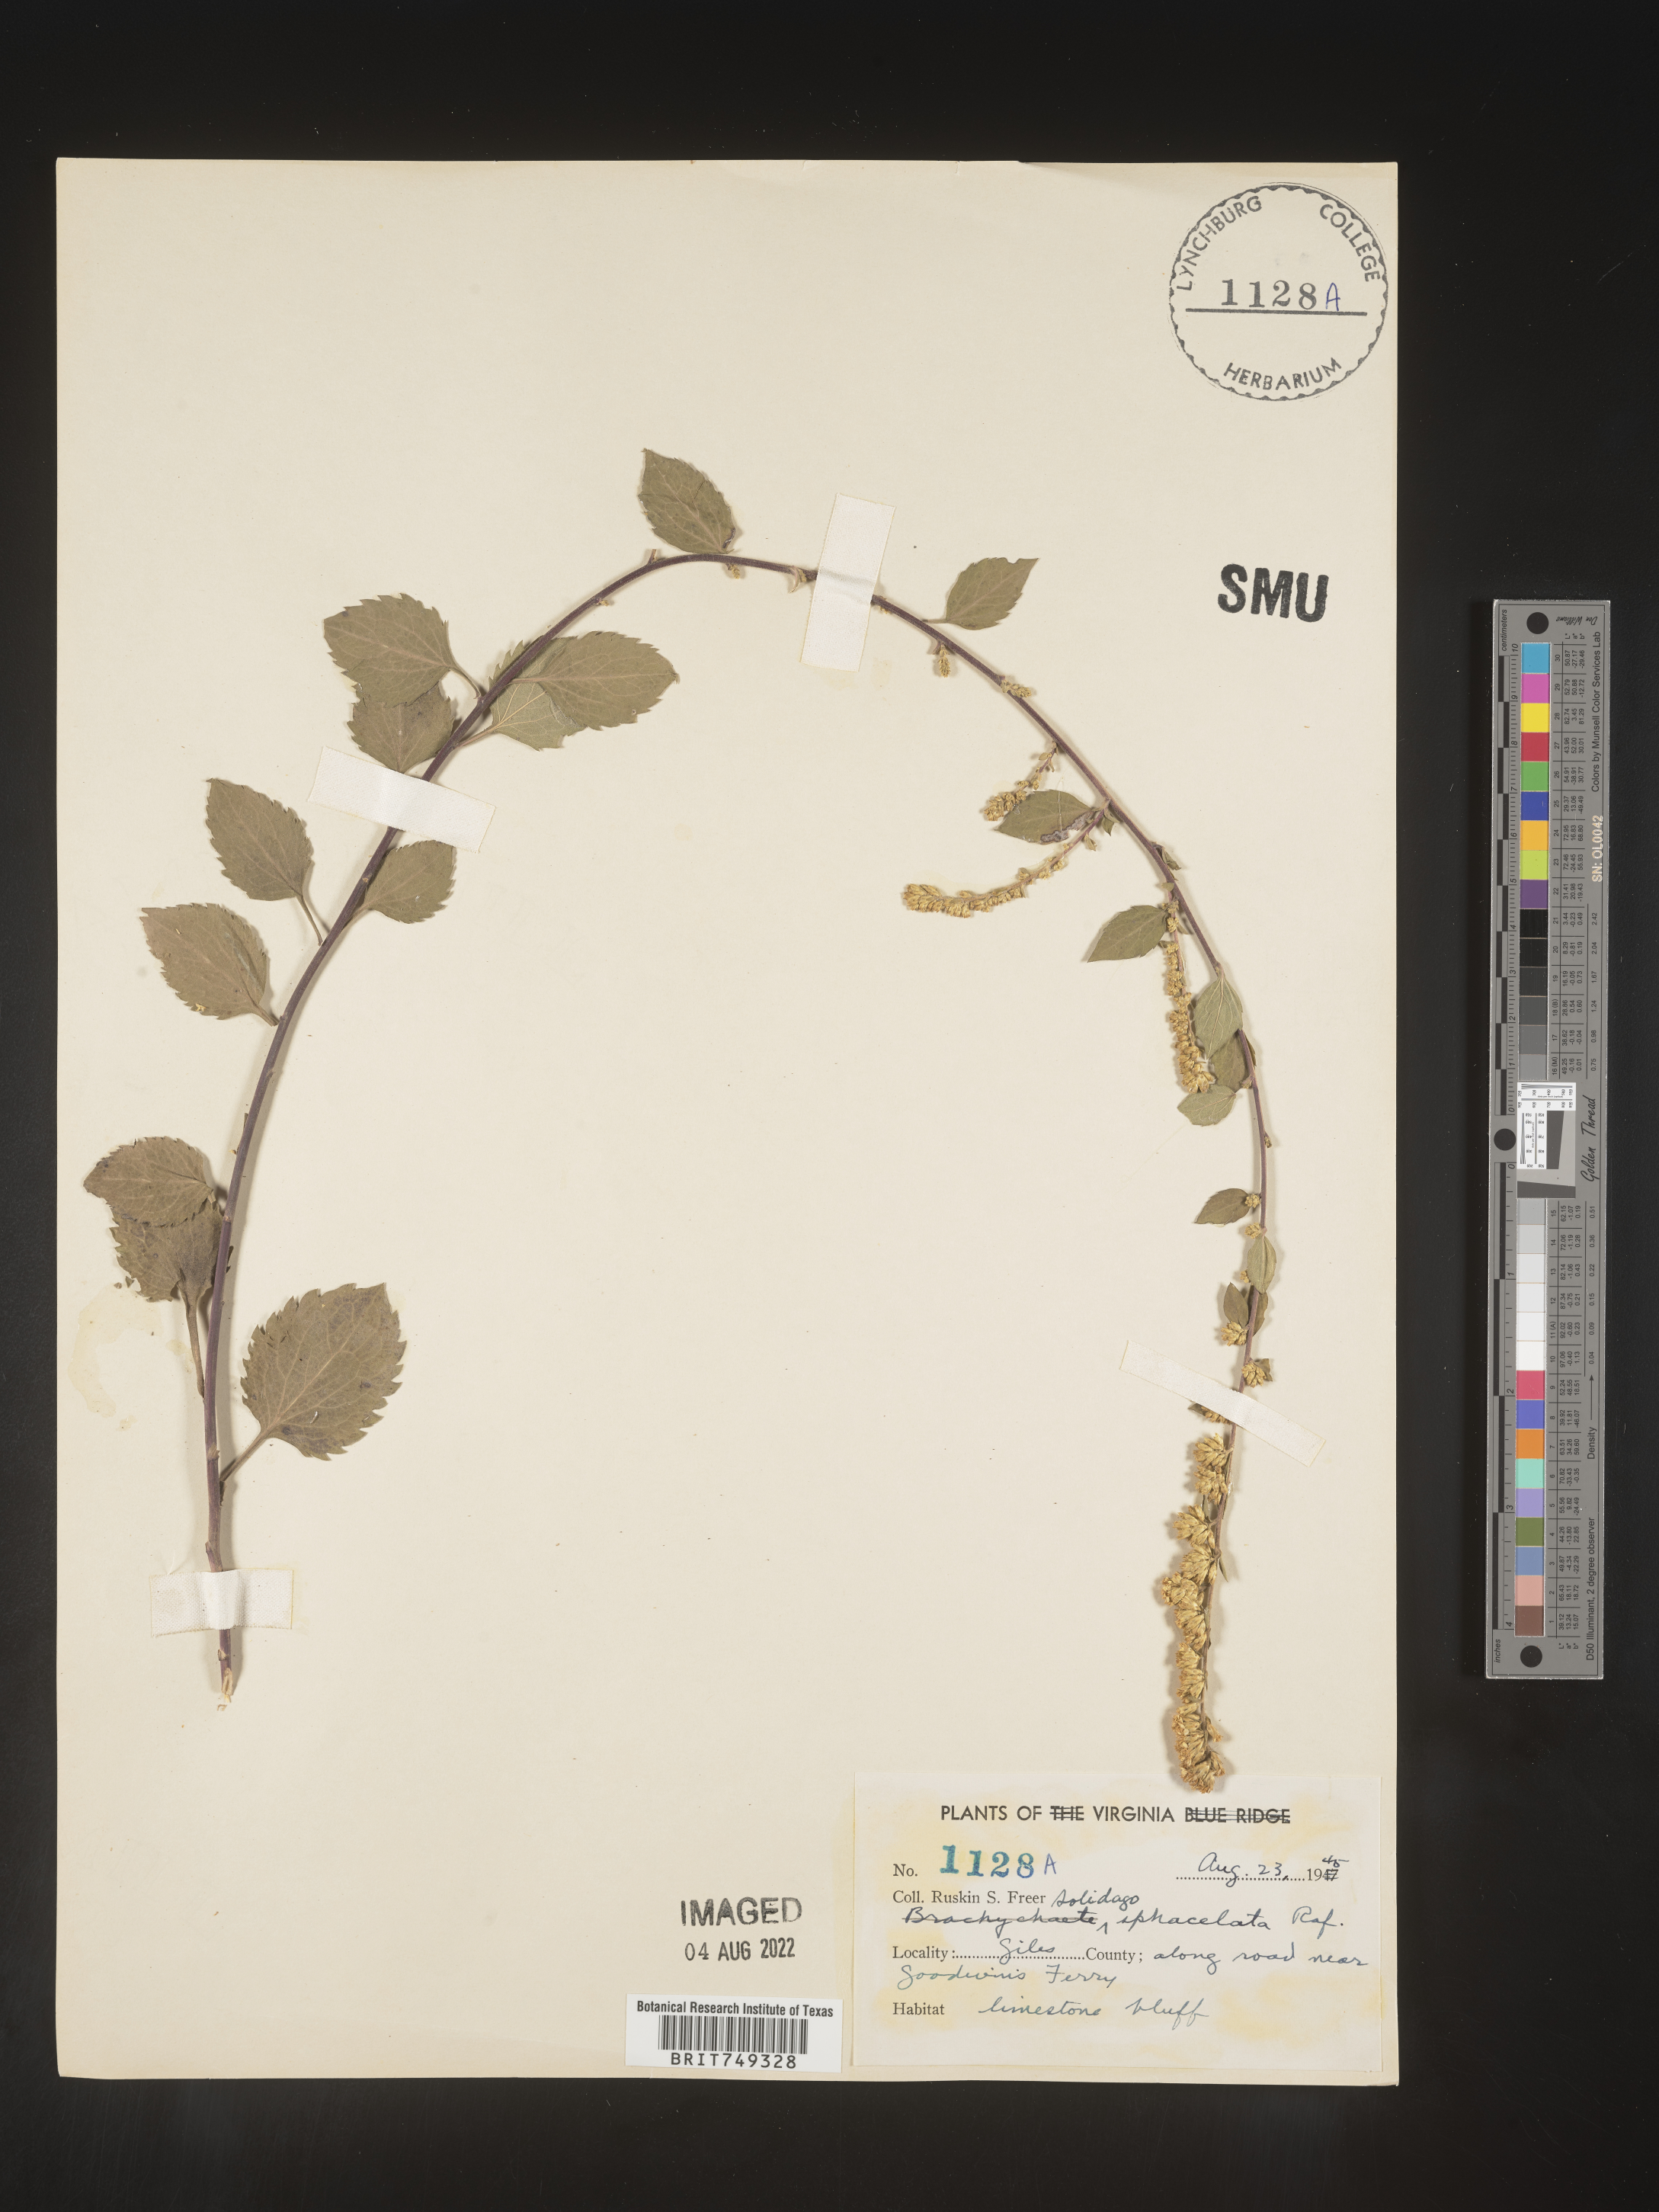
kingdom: Plantae
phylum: Tracheophyta
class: Magnoliopsida
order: Asterales
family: Asteraceae
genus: Solidago
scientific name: Solidago sphacelata
